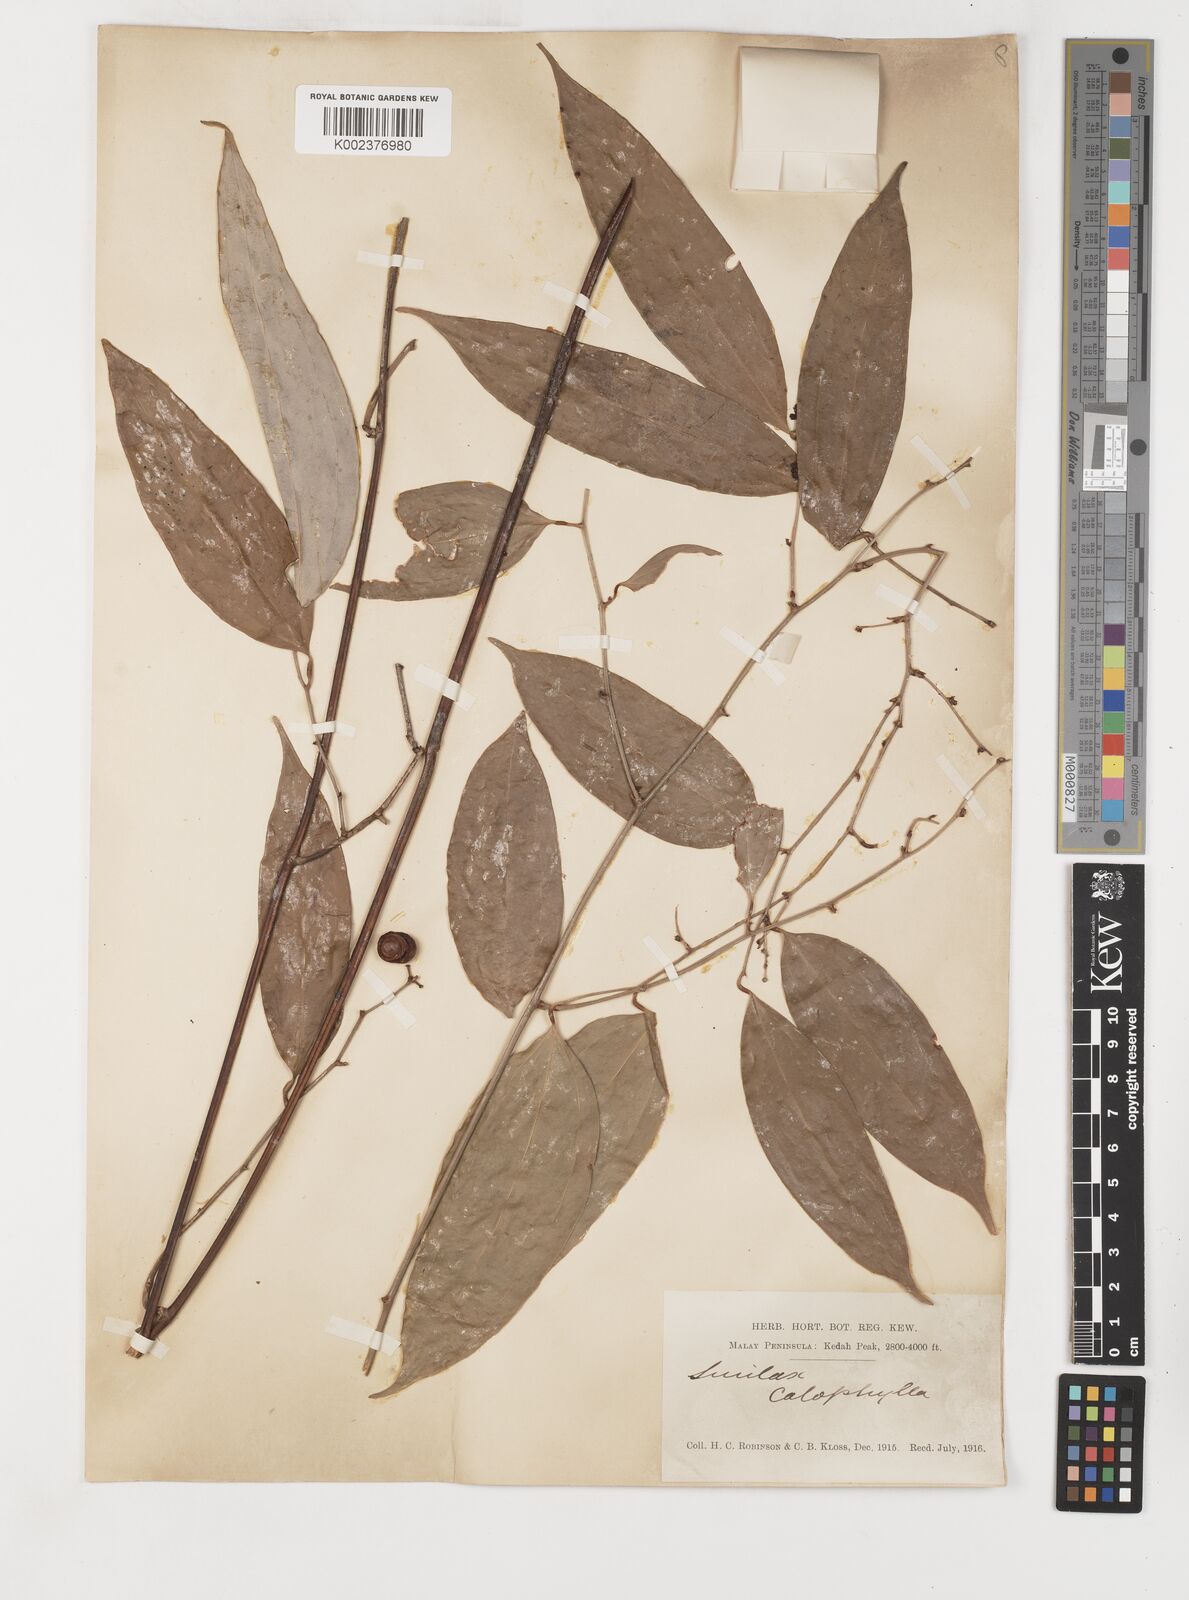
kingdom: Plantae
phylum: Tracheophyta
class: Liliopsida
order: Liliales
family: Smilacaceae
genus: Smilax
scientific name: Smilax calophylla
